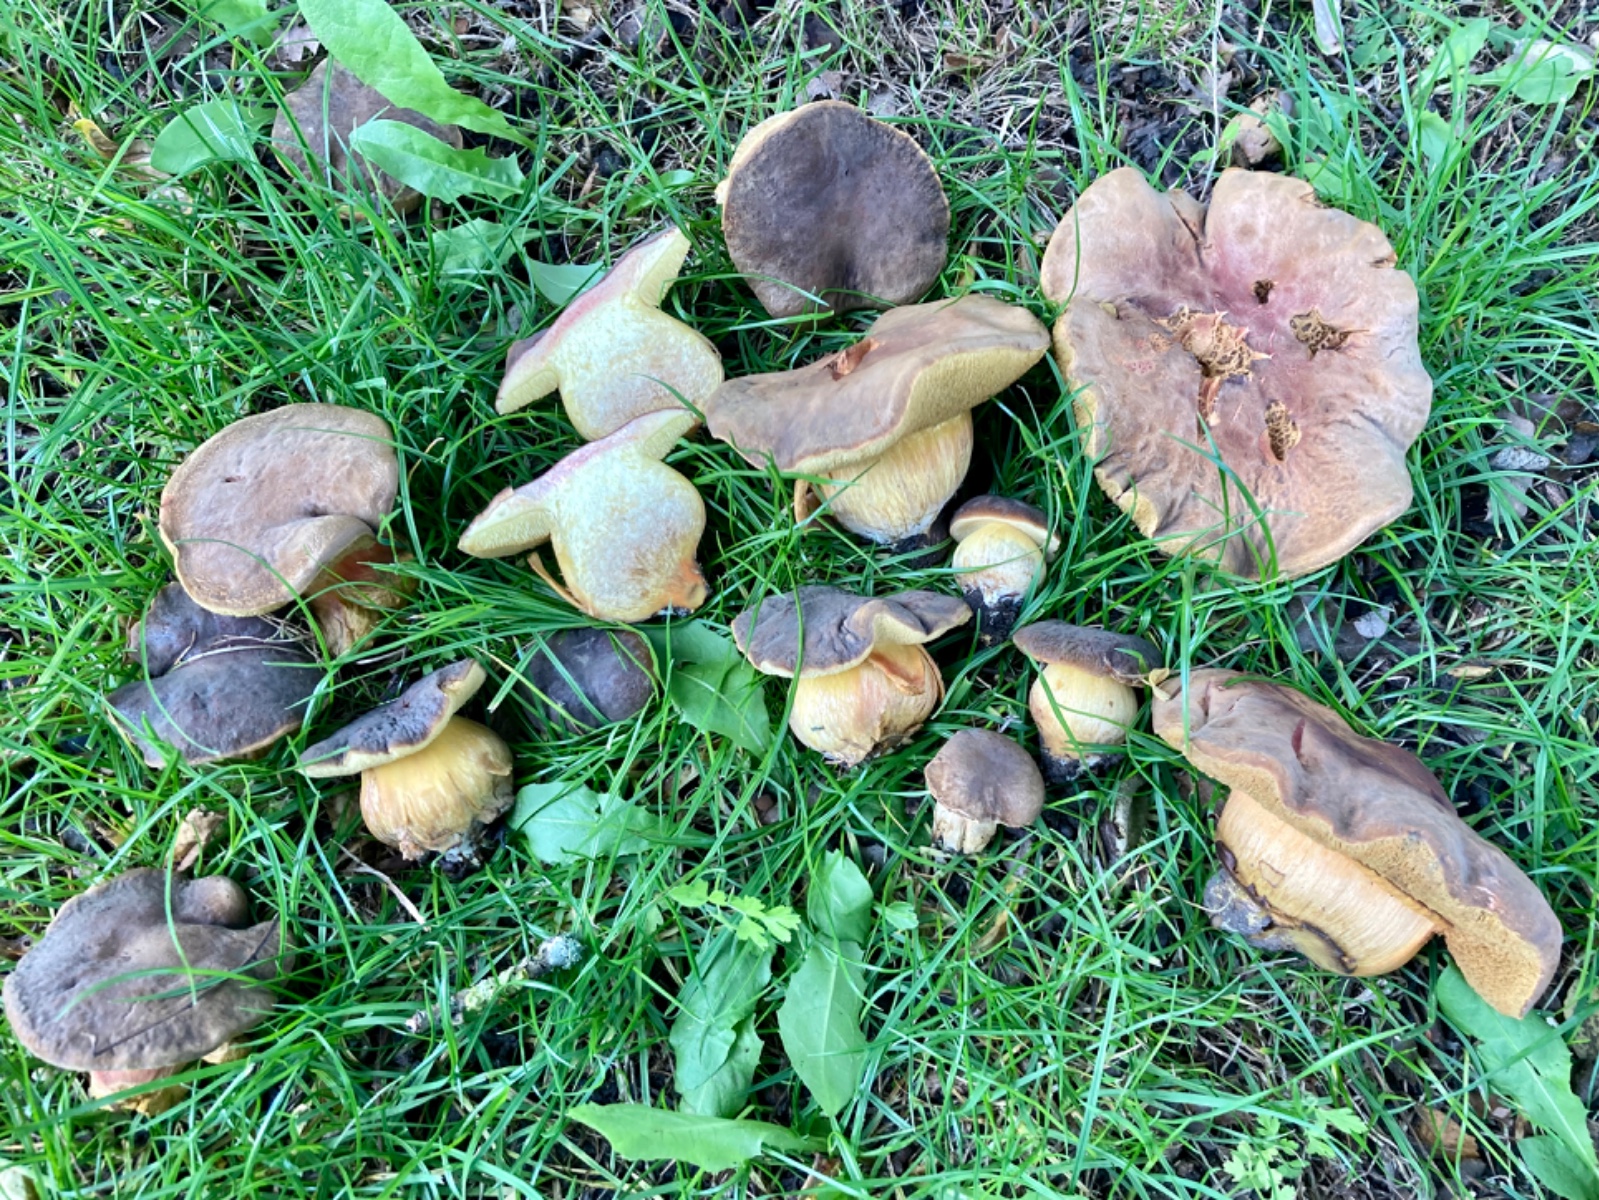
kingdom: Fungi
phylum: Basidiomycota
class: Agaricomycetes
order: Boletales
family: Boletaceae
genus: Hortiboletus
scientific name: Hortiboletus bubalinus
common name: aurora-rørhat
